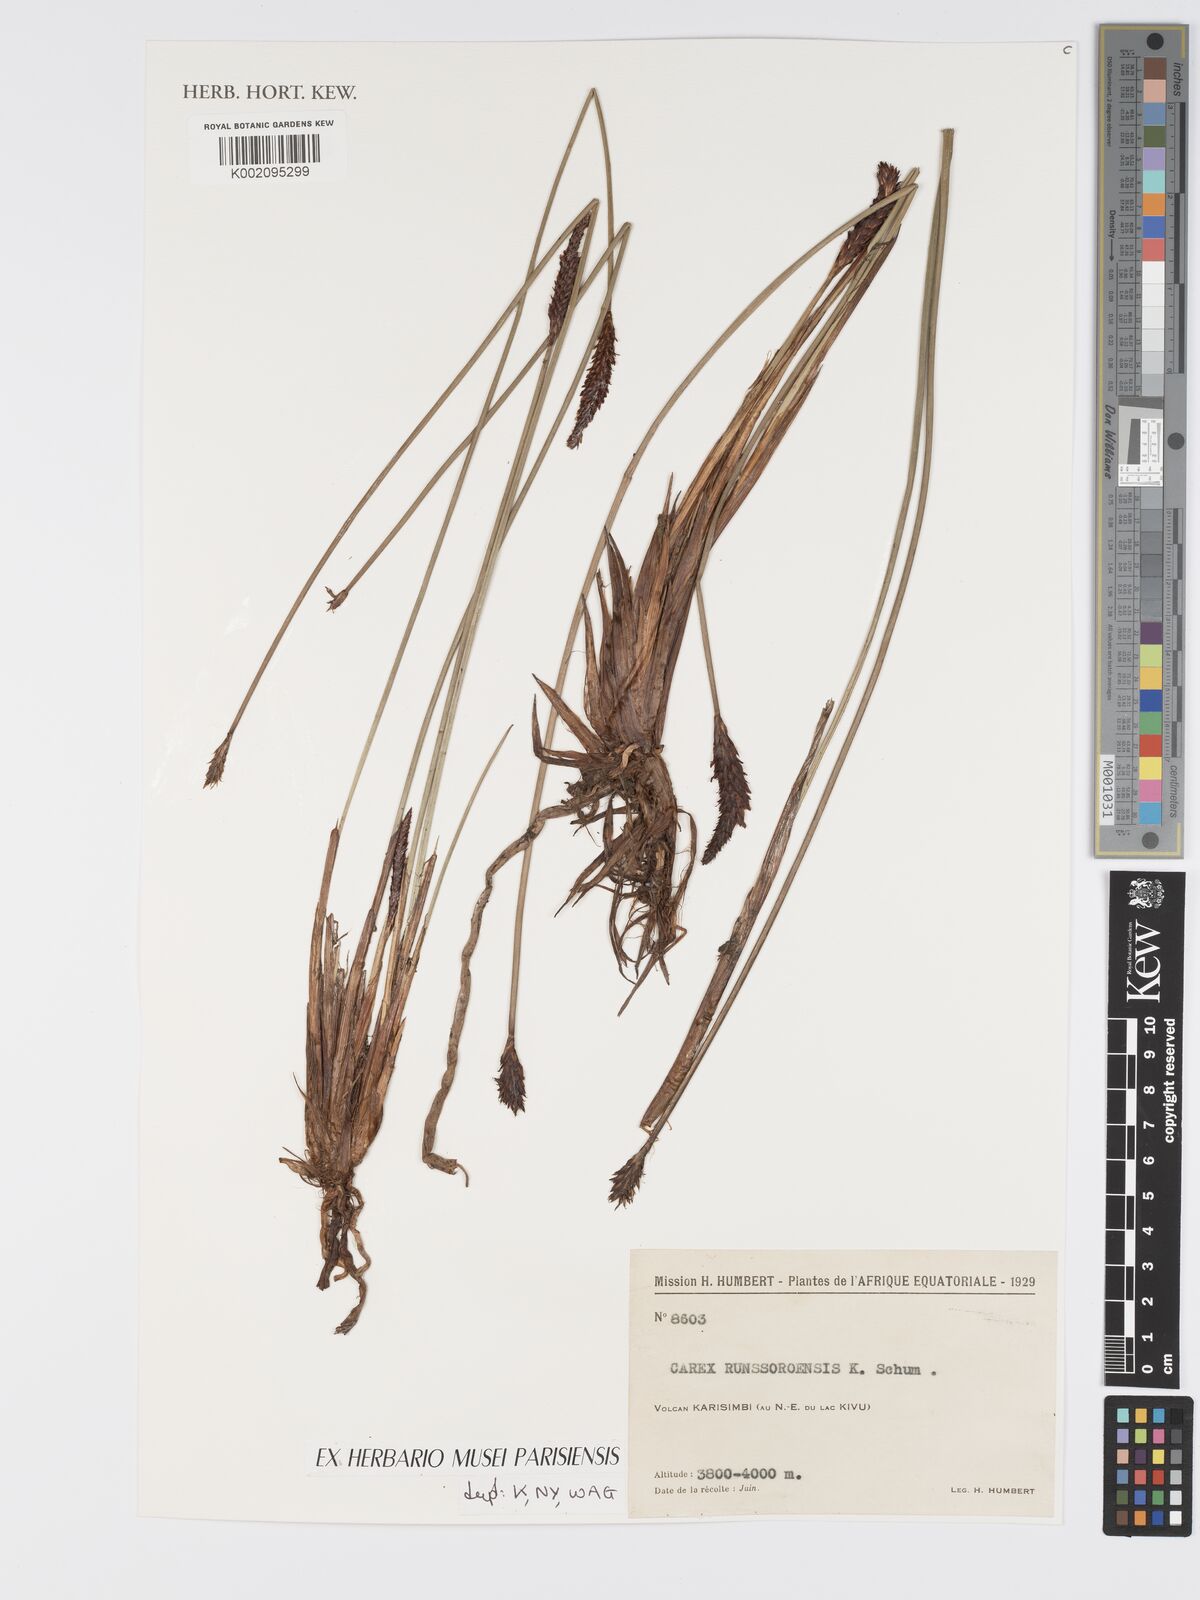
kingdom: Plantae
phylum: Tracheophyta
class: Liliopsida
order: Poales
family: Cyperaceae
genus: Carex
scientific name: Carex runssoroensis
